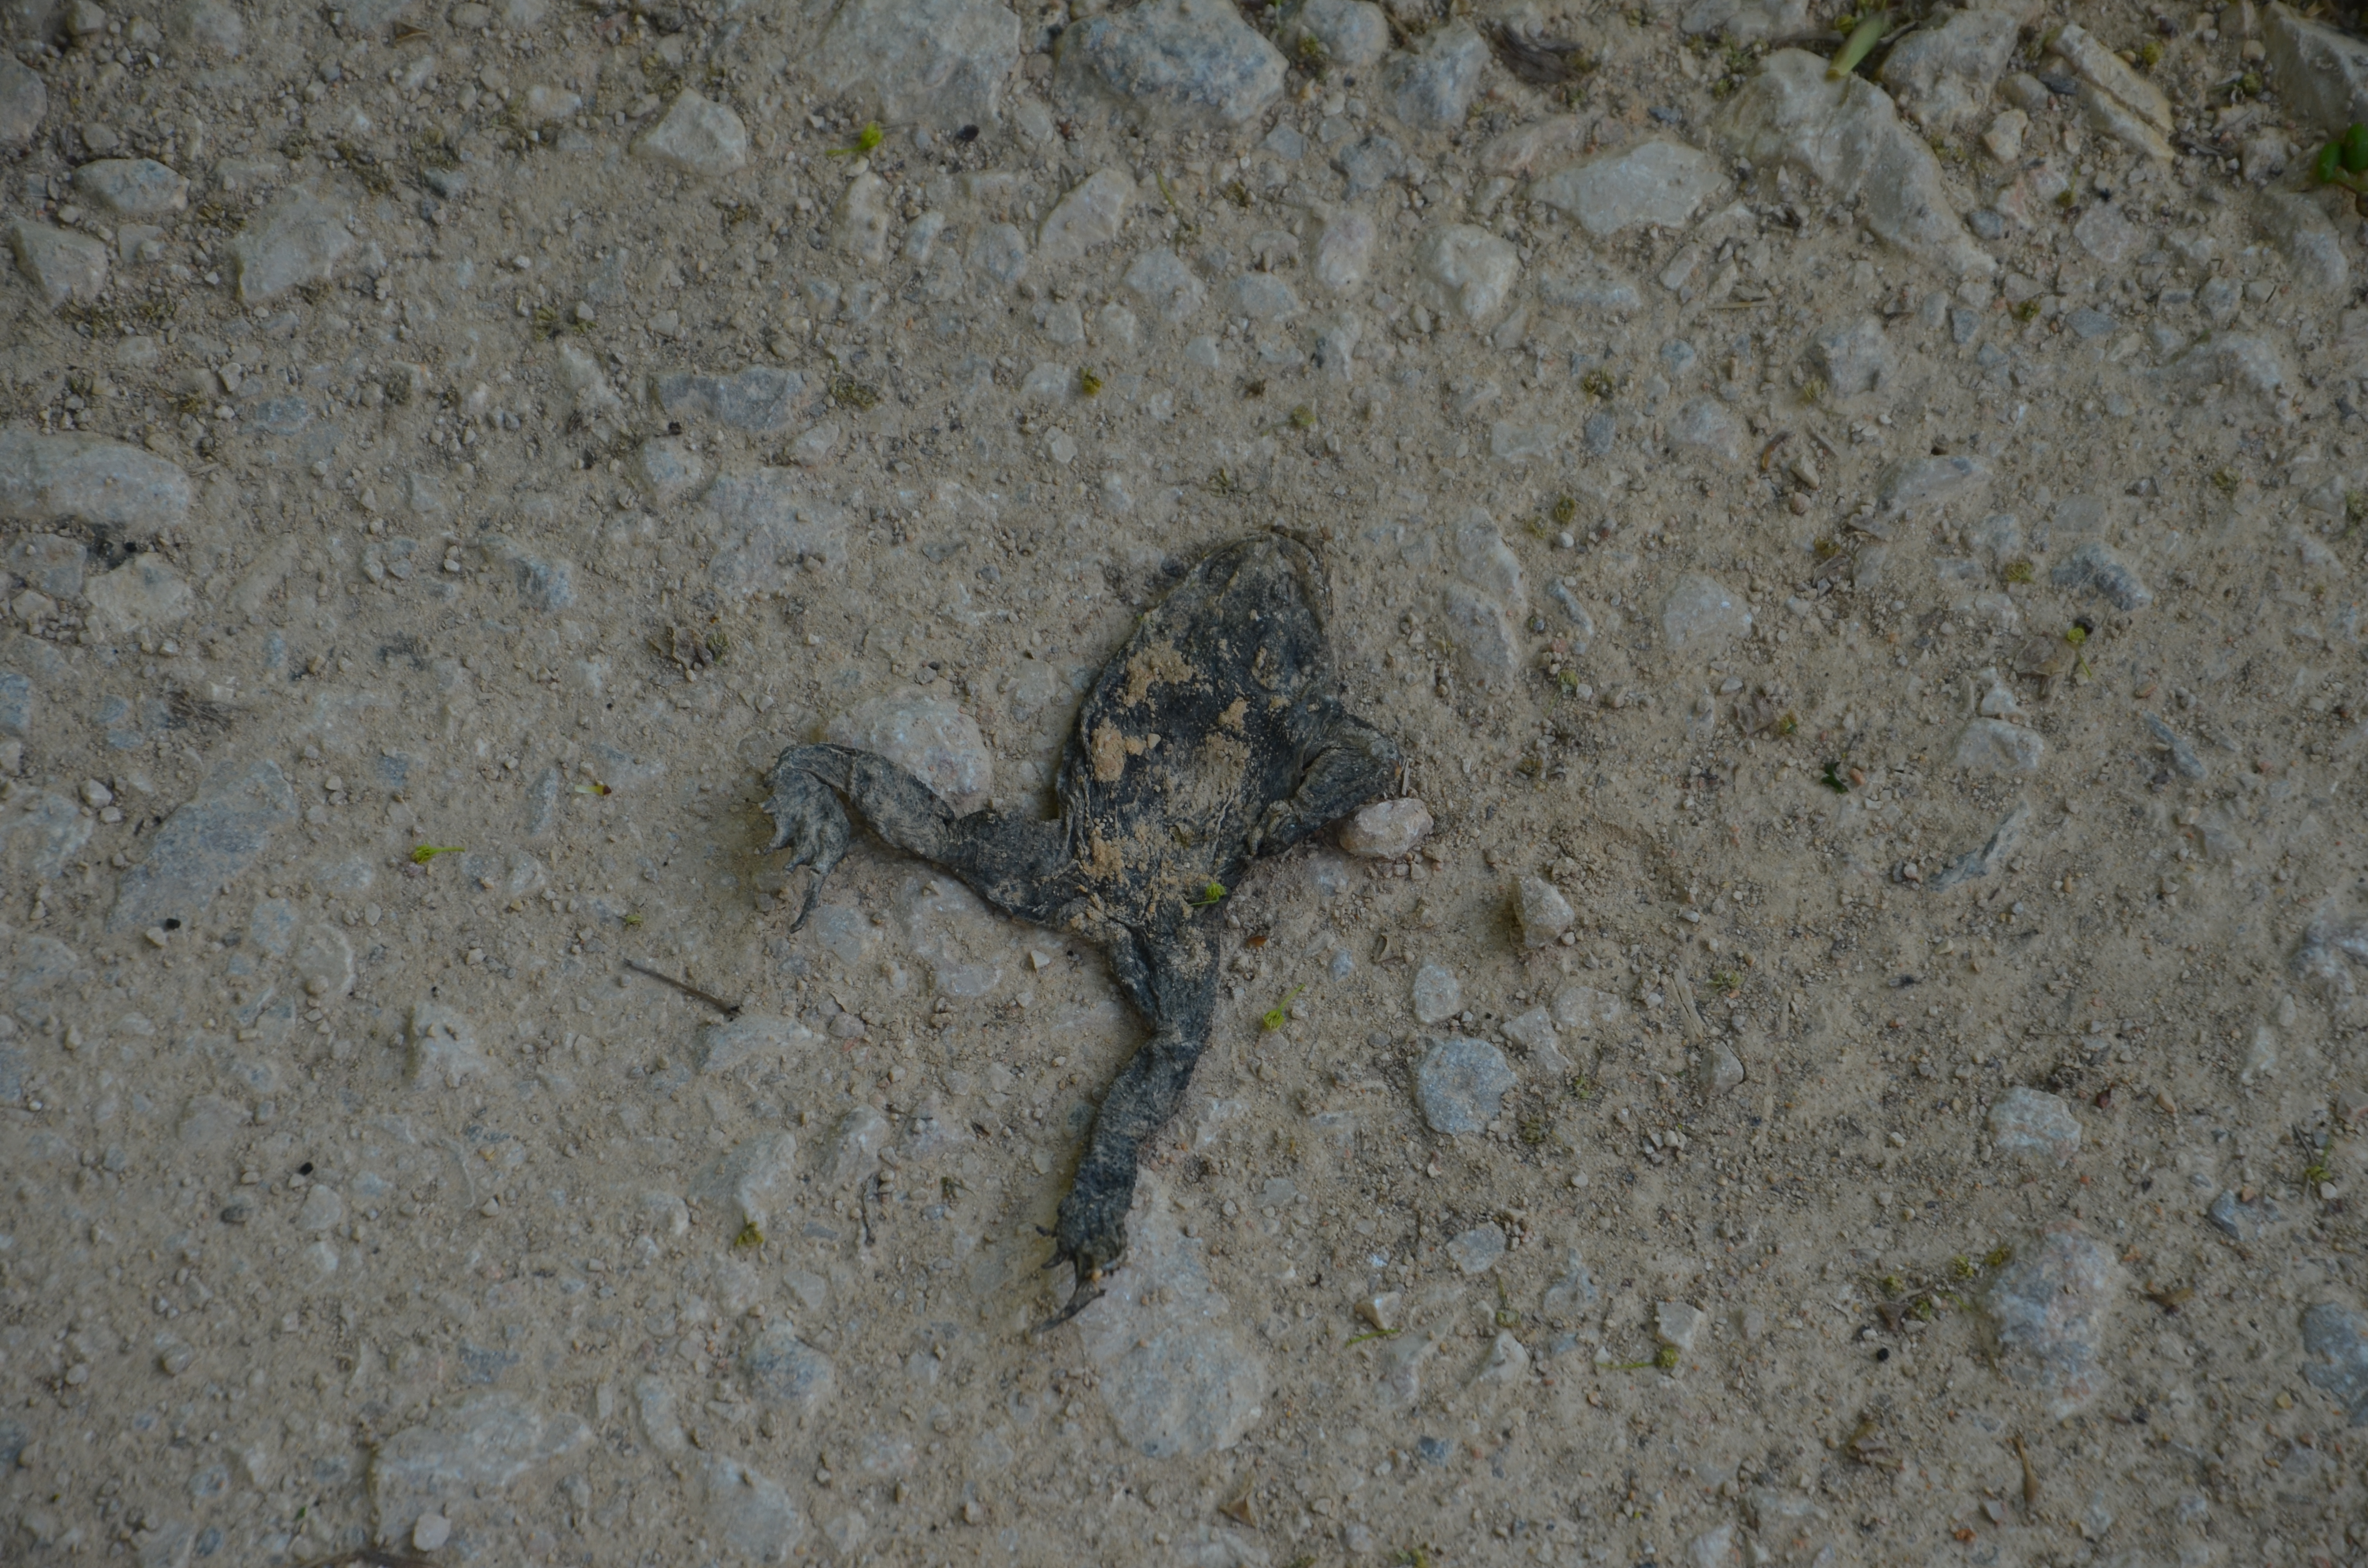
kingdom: Animalia
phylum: Chordata
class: Amphibia
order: Anura
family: Bufonidae
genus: Bufo
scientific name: Bufo bufo
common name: Common toad
